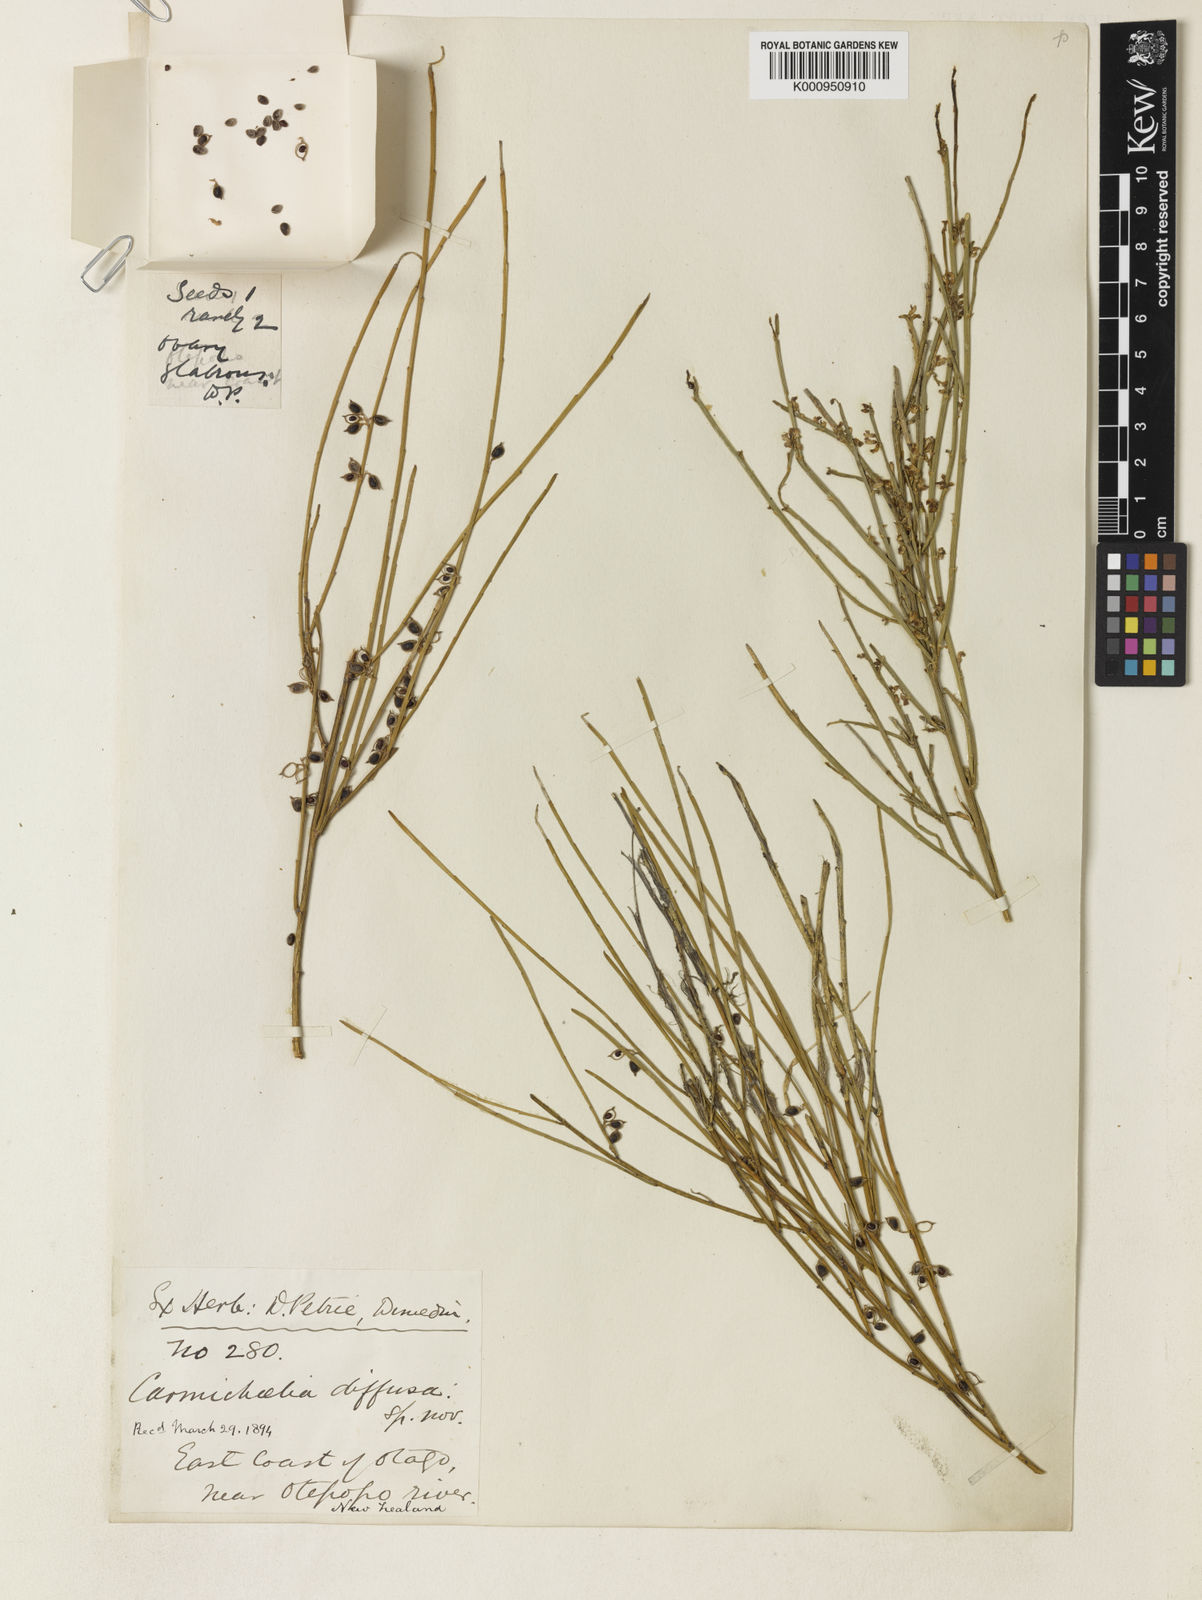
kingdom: Plantae
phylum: Tracheophyta
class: Magnoliopsida
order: Fabales
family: Fabaceae
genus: Carmichaelia
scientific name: Carmichaelia curta
